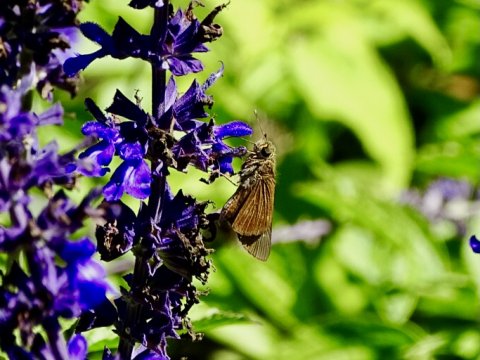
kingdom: Animalia
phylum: Arthropoda
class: Insecta
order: Lepidoptera
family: Hesperiidae
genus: Panoquina
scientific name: Panoquina ocola
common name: Ocola Skipper
